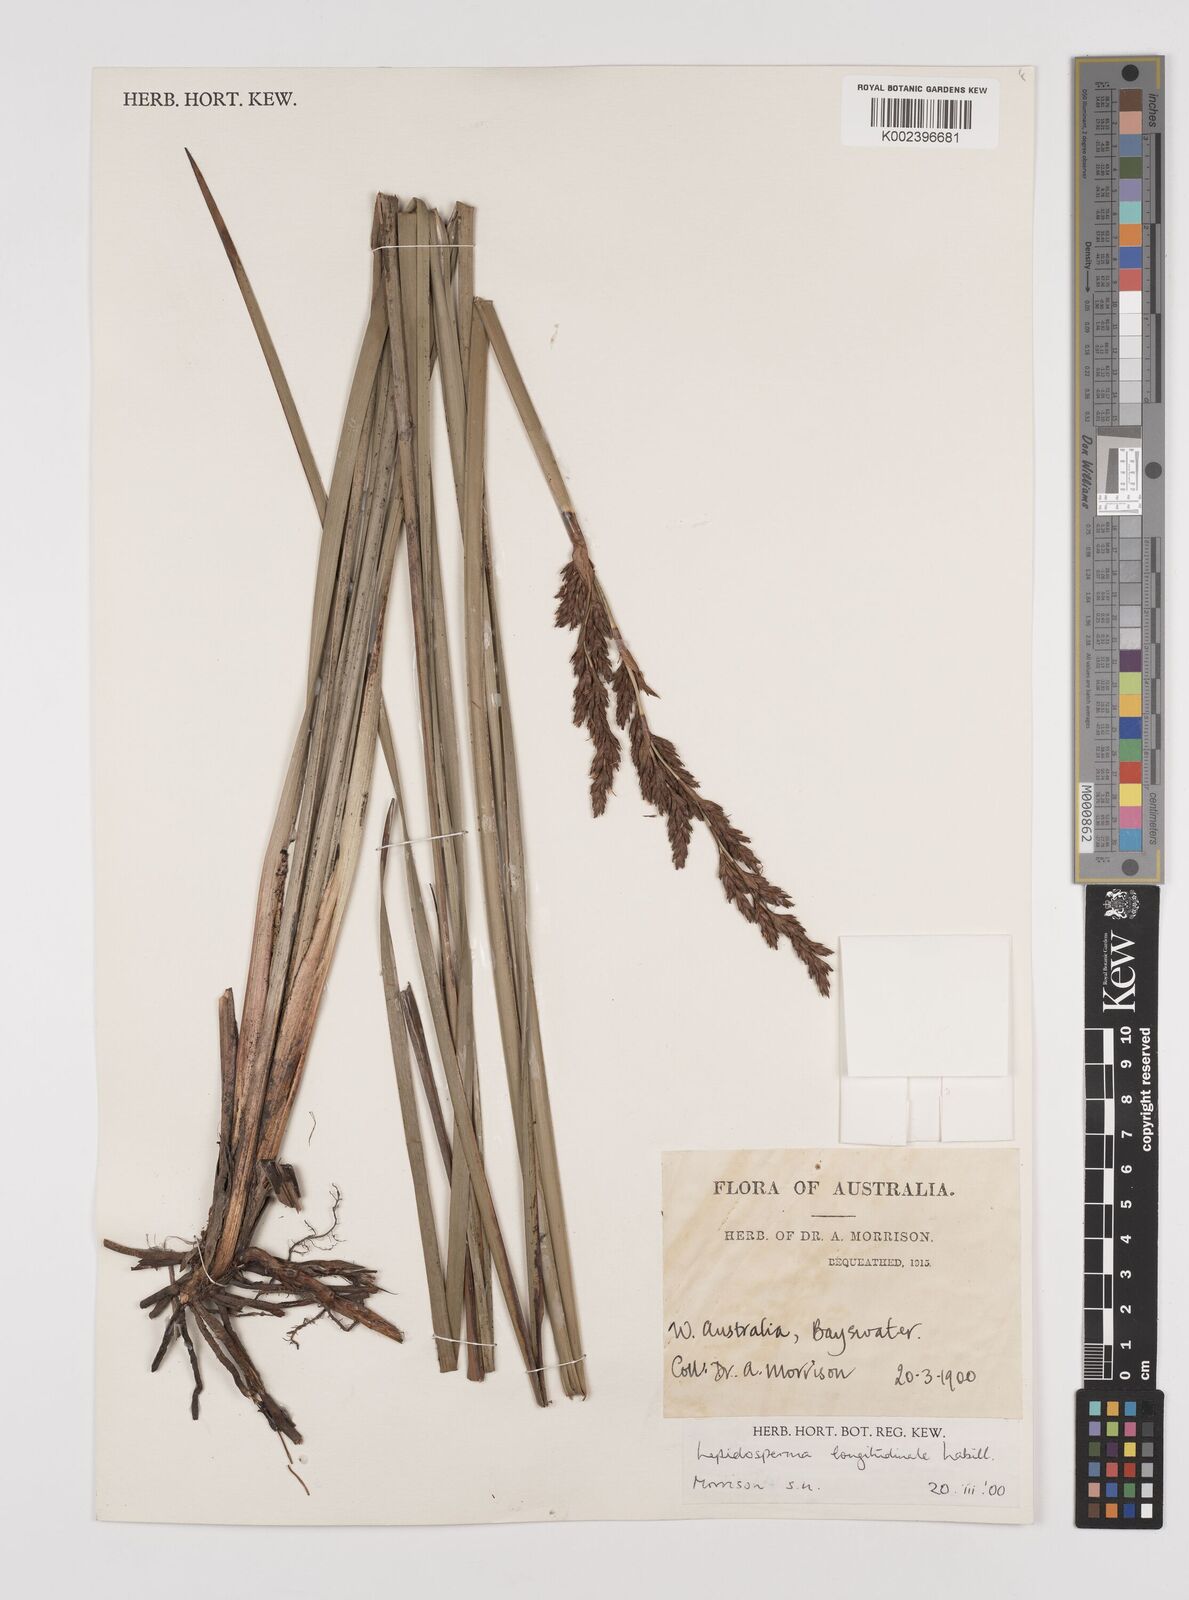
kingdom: Plantae
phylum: Tracheophyta
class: Liliopsida
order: Poales
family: Cyperaceae
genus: Lepidosperma
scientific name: Lepidosperma longitudinale
